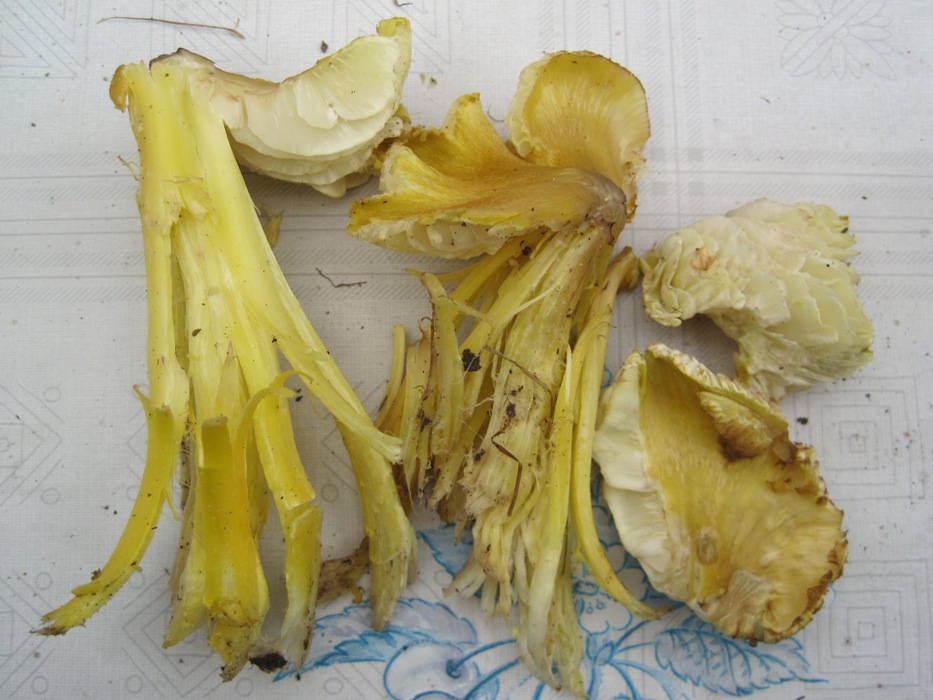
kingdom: Fungi
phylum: Basidiomycota
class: Agaricomycetes
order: Agaricales
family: Hygrophoraceae
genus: Hygrocybe
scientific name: Hygrocybe citrinovirens
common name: grøngul vokshat
